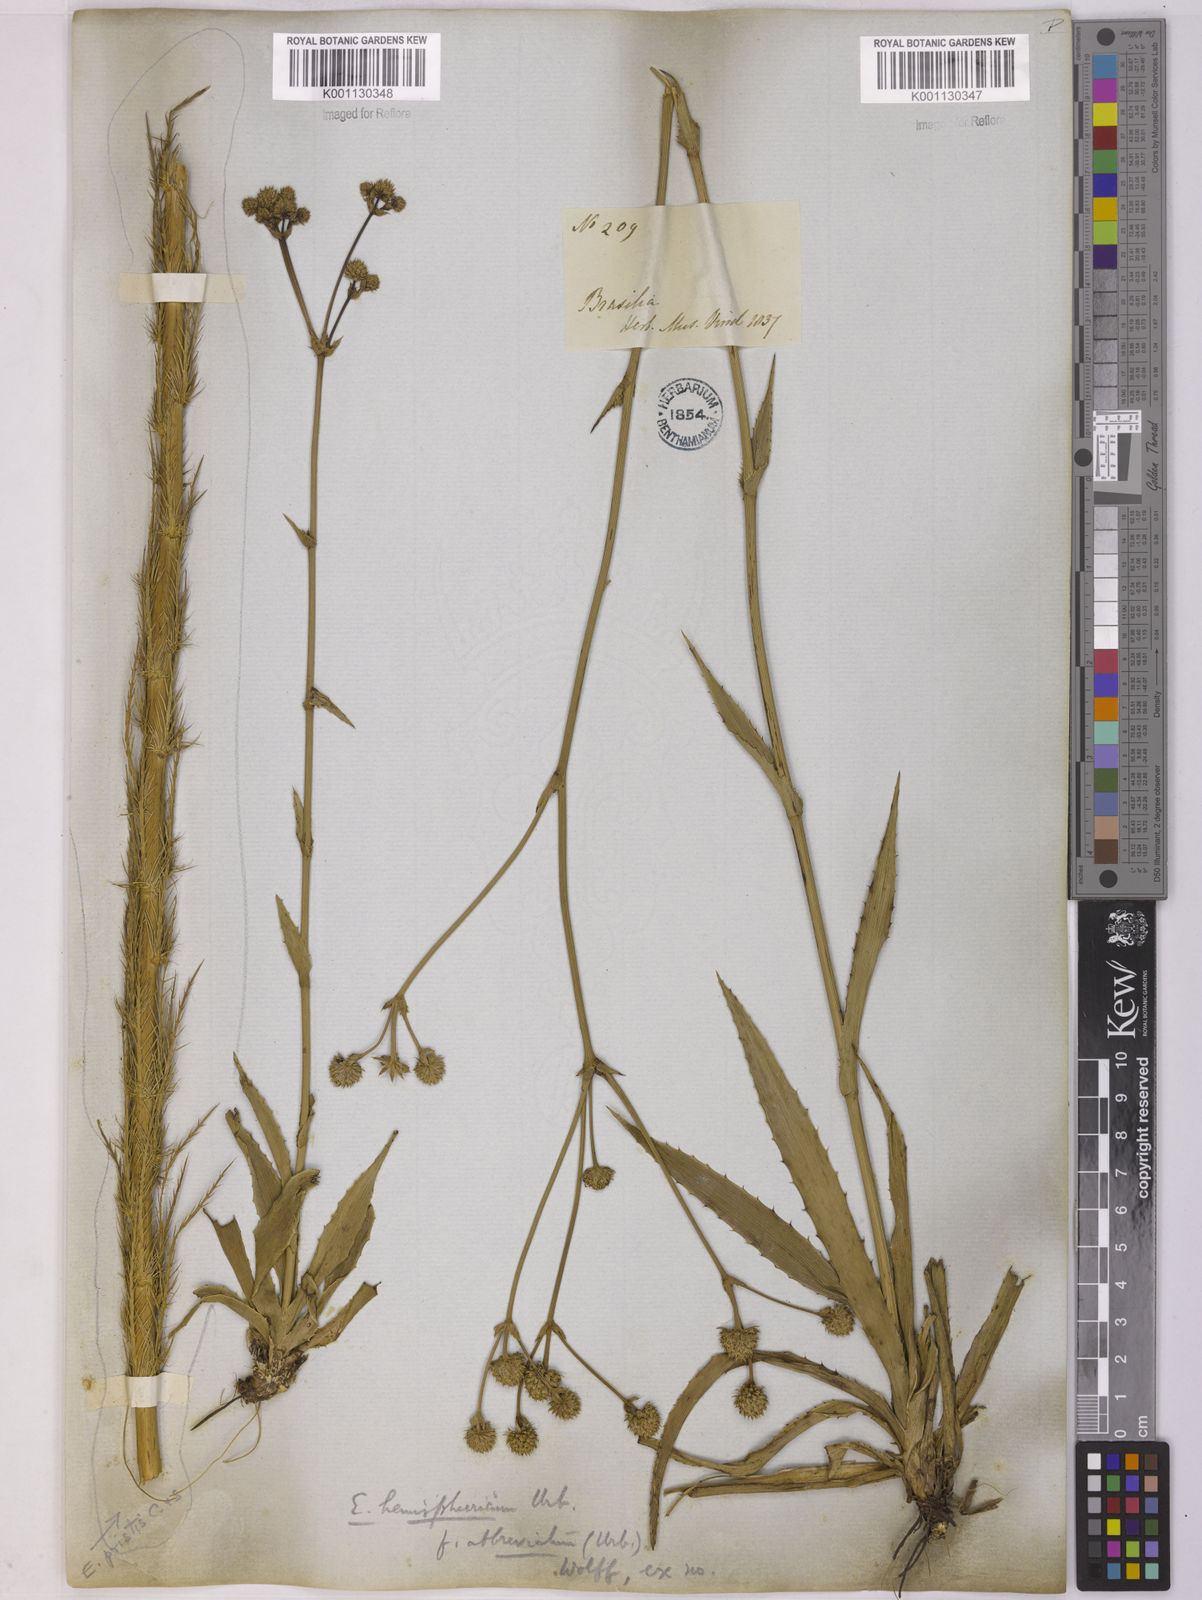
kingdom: Plantae
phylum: Tracheophyta
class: Magnoliopsida
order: Apiales
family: Apiaceae
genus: Eryngium
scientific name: Eryngium hemisphaericum
